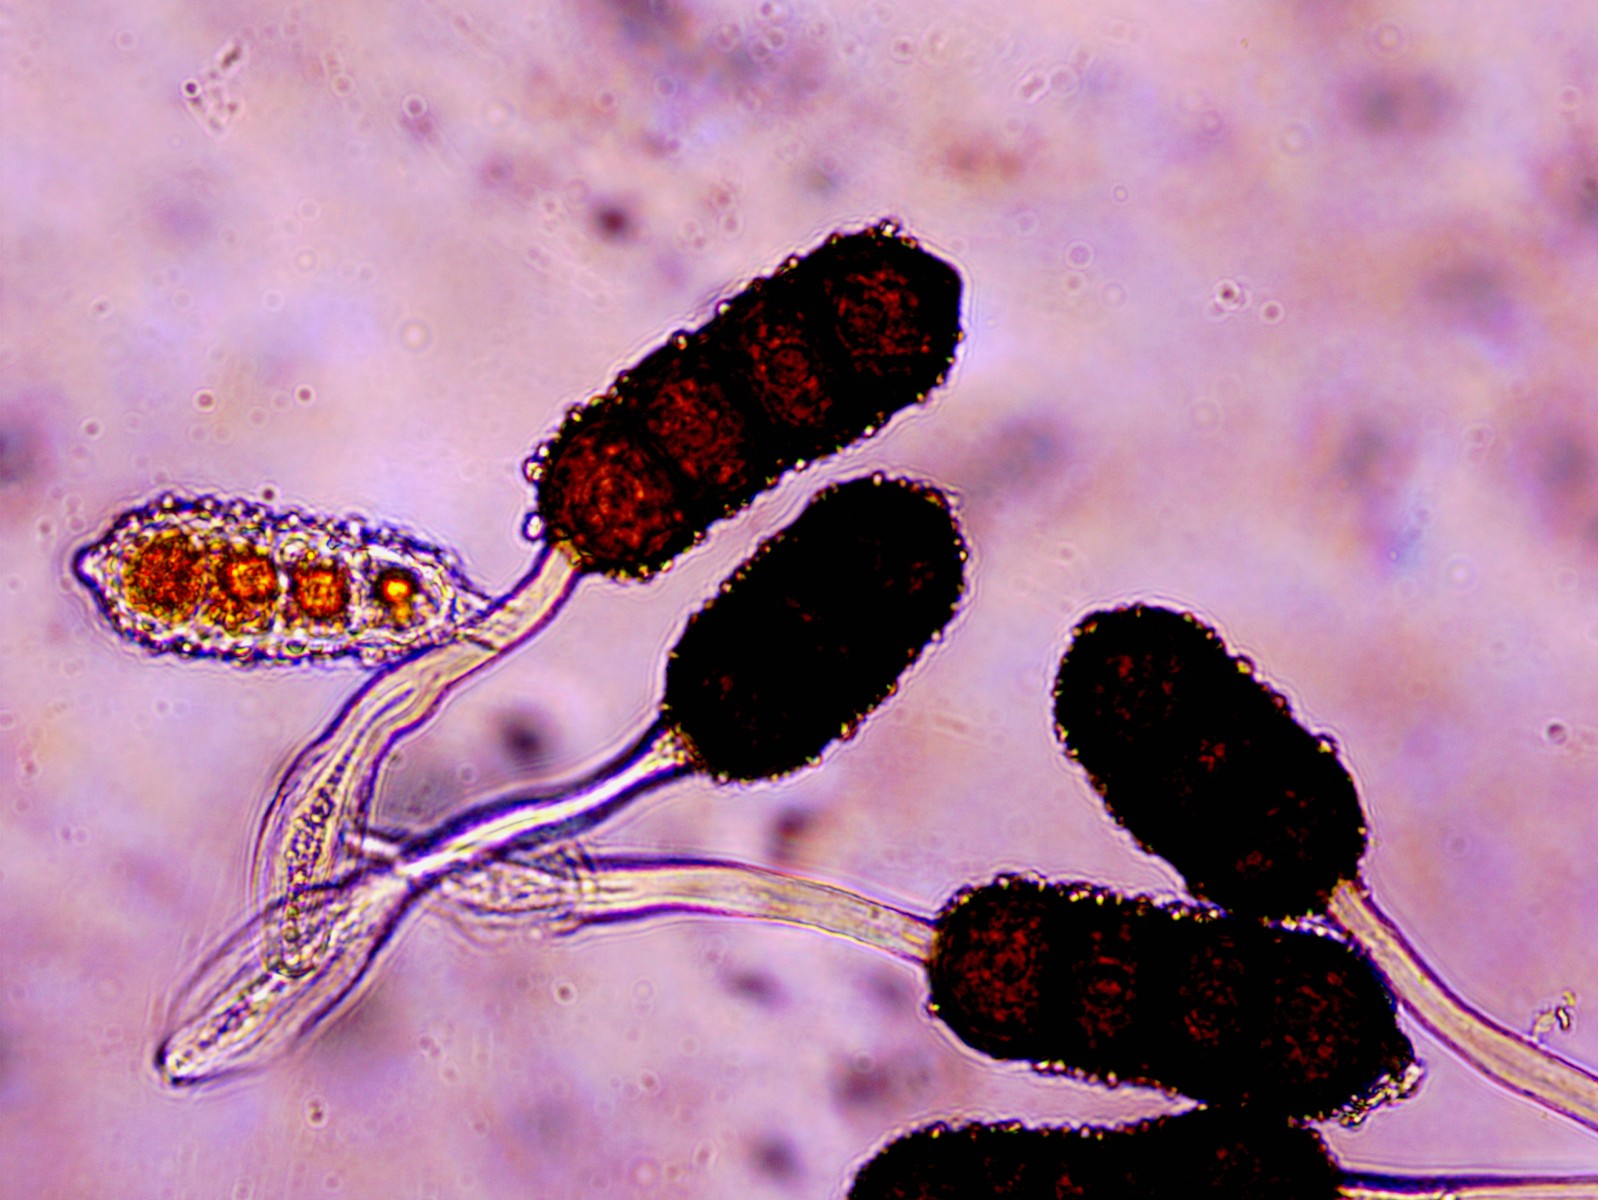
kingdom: Fungi
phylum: Basidiomycota
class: Pucciniomycetes
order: Pucciniales
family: Phragmidiaceae
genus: Phragmidium
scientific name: Phragmidium violaceum
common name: violet flercellerust
